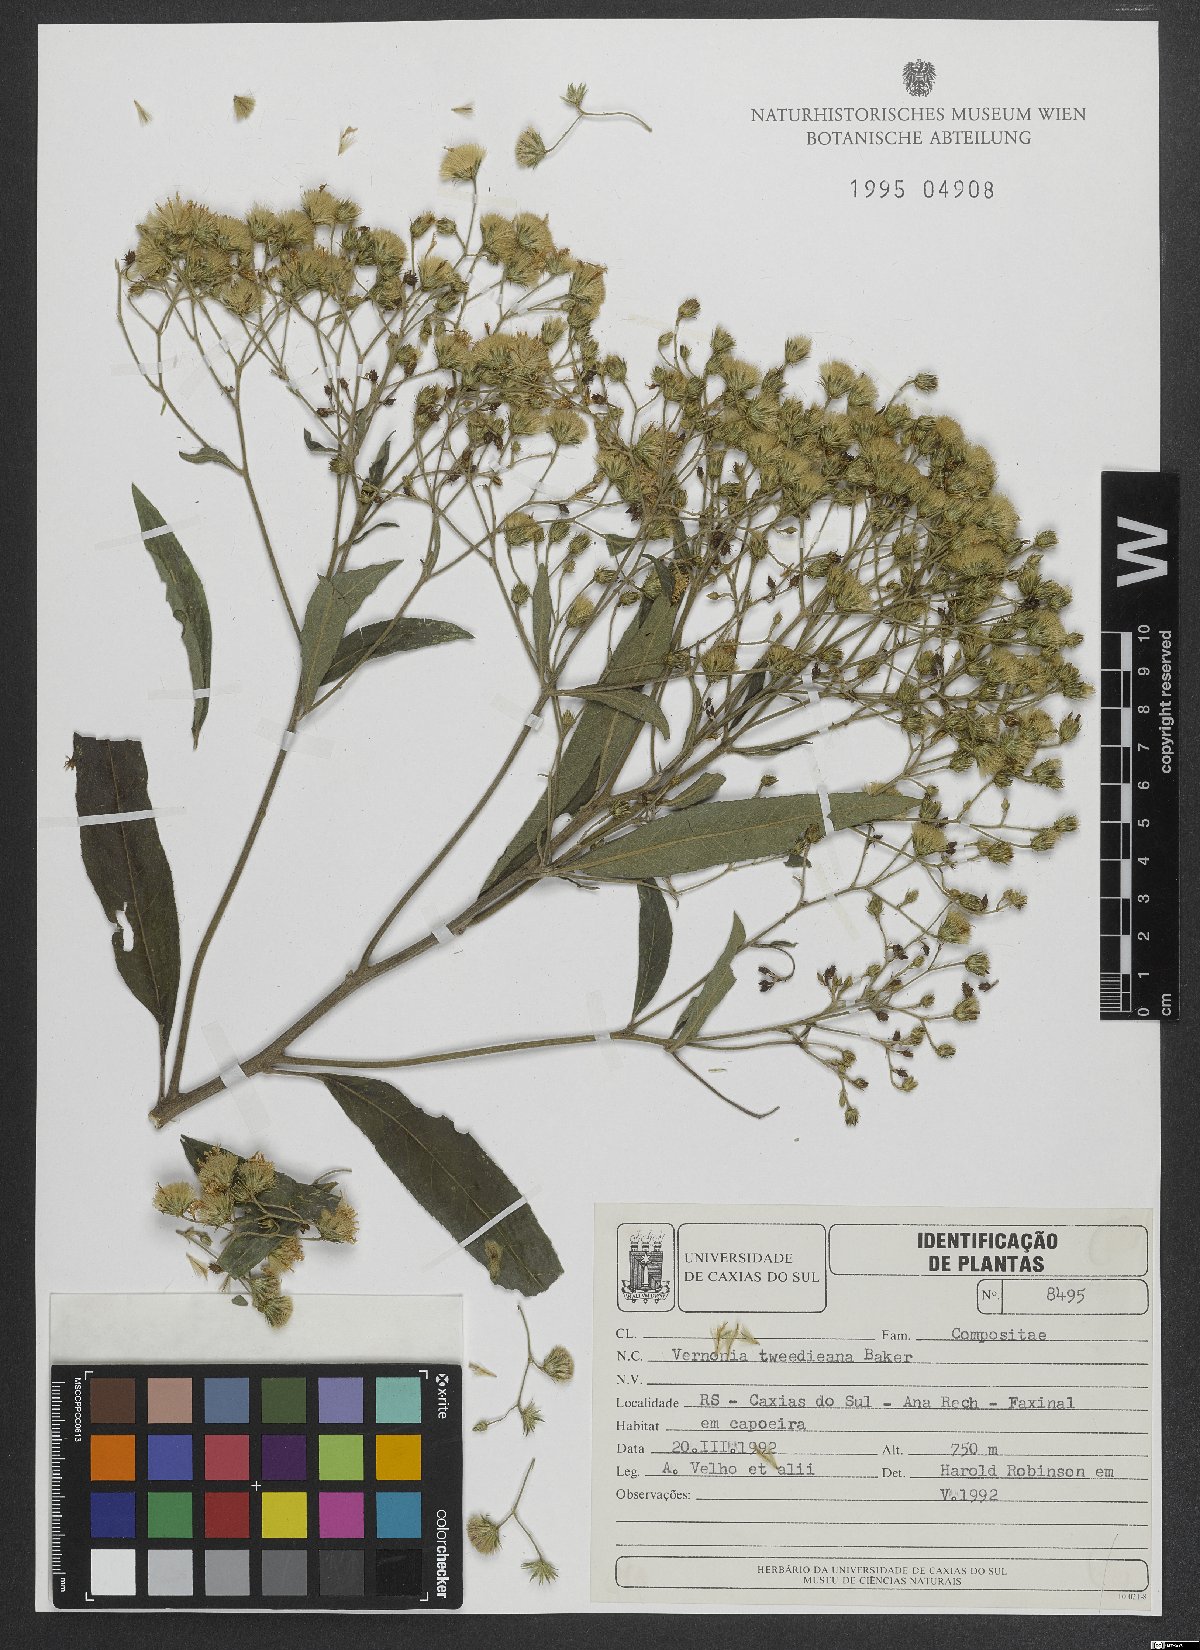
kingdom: Plantae
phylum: Tracheophyta
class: Magnoliopsida
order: Asterales
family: Asteraceae
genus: Vernonanthura
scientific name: Vernonanthura tweedieana
